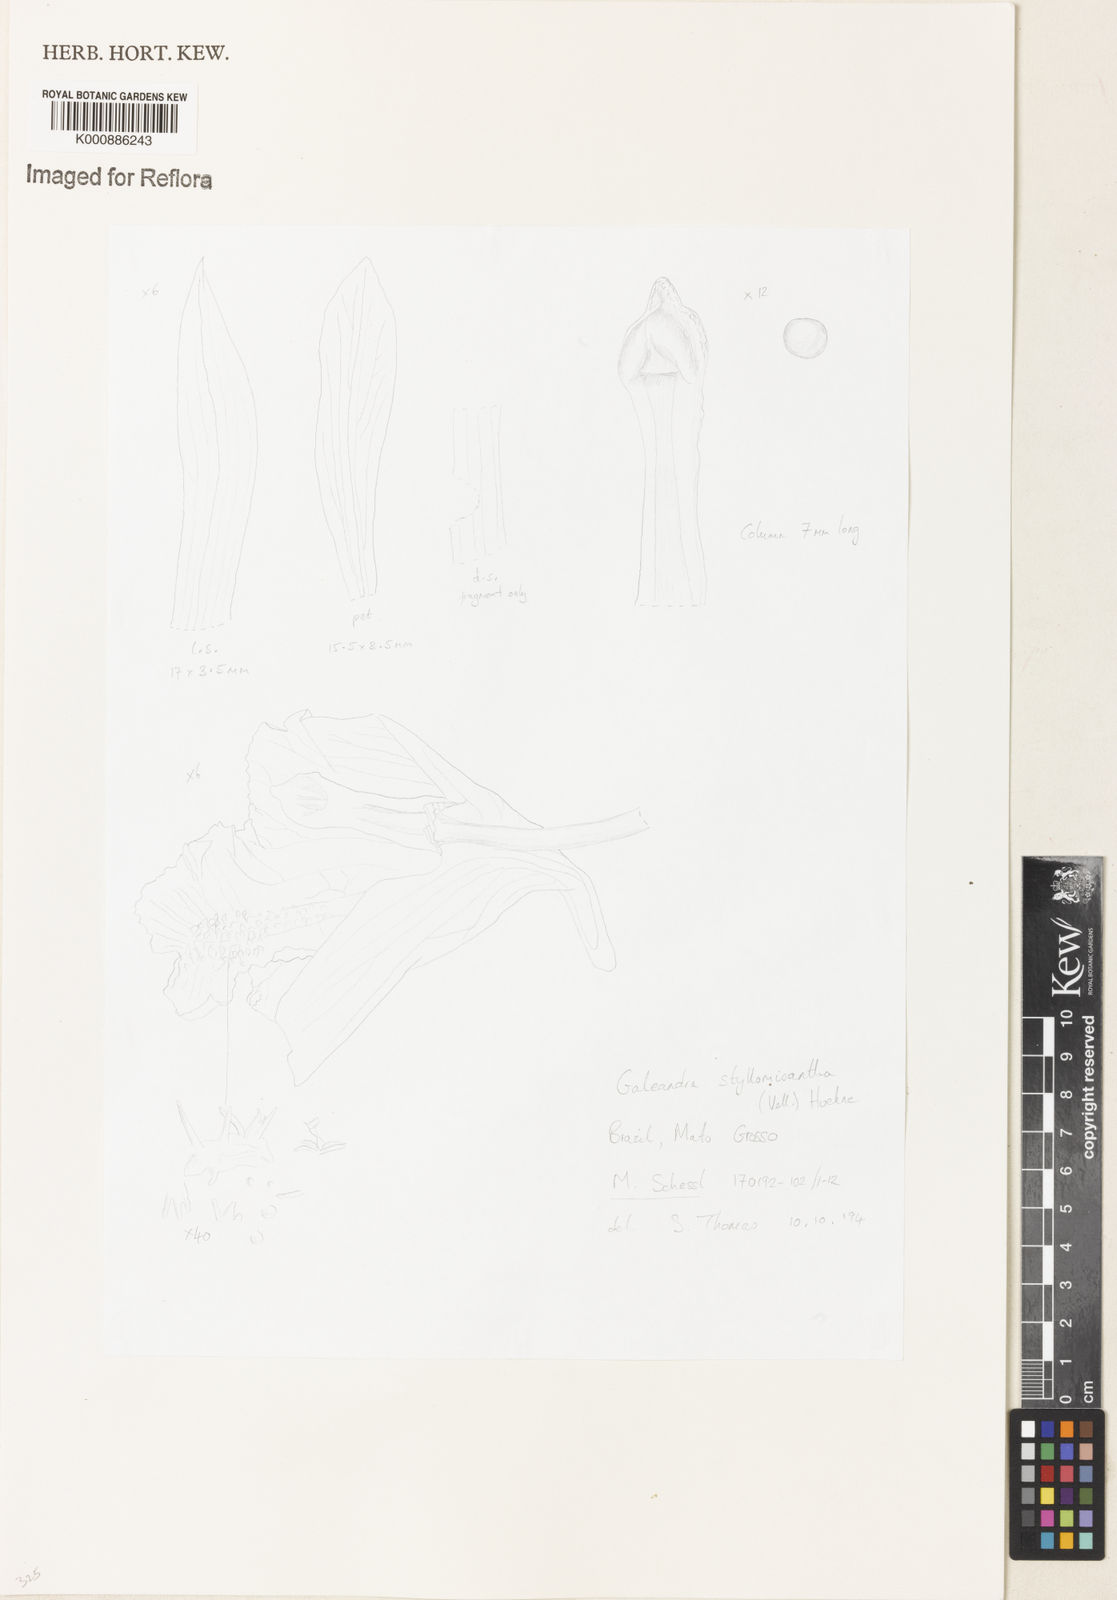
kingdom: Plantae
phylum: Tracheophyta
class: Liliopsida
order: Asparagales
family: Orchidaceae
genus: Galeandra
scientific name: Galeandra styllomisantha
